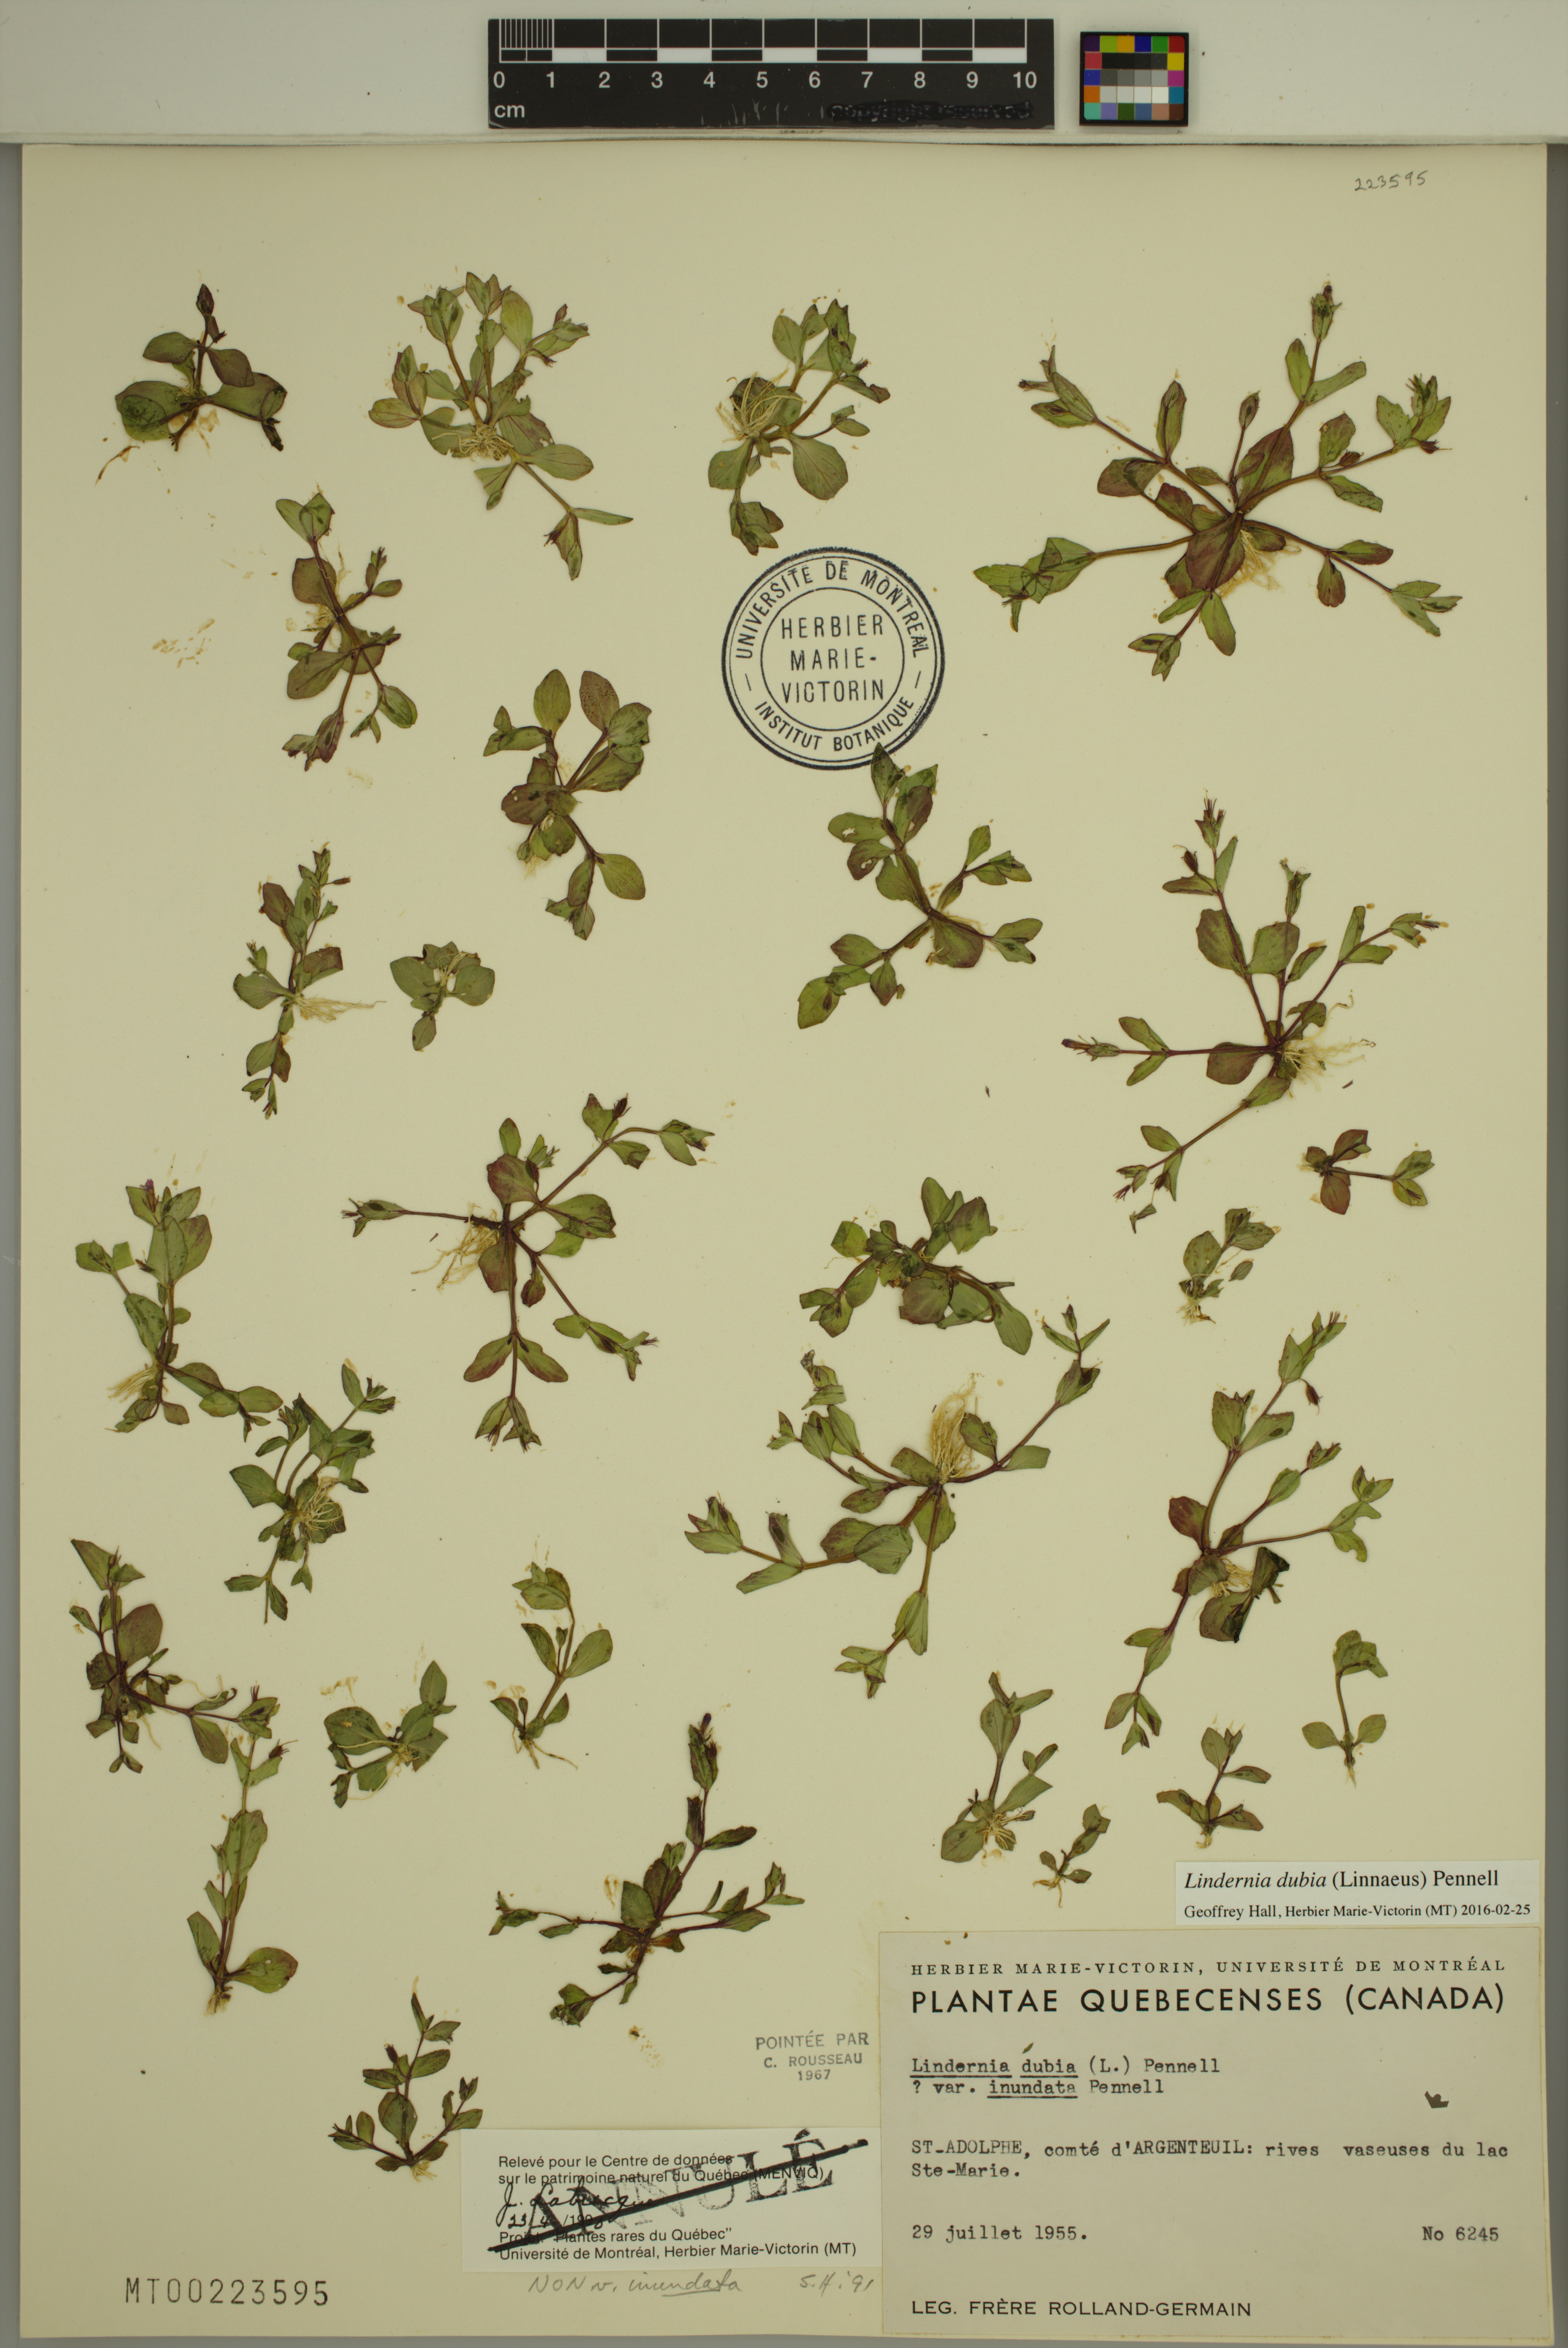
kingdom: Plantae
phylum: Tracheophyta
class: Magnoliopsida
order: Lamiales
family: Linderniaceae
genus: Lindernia
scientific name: Lindernia dubia
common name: Annual false pimpernel
